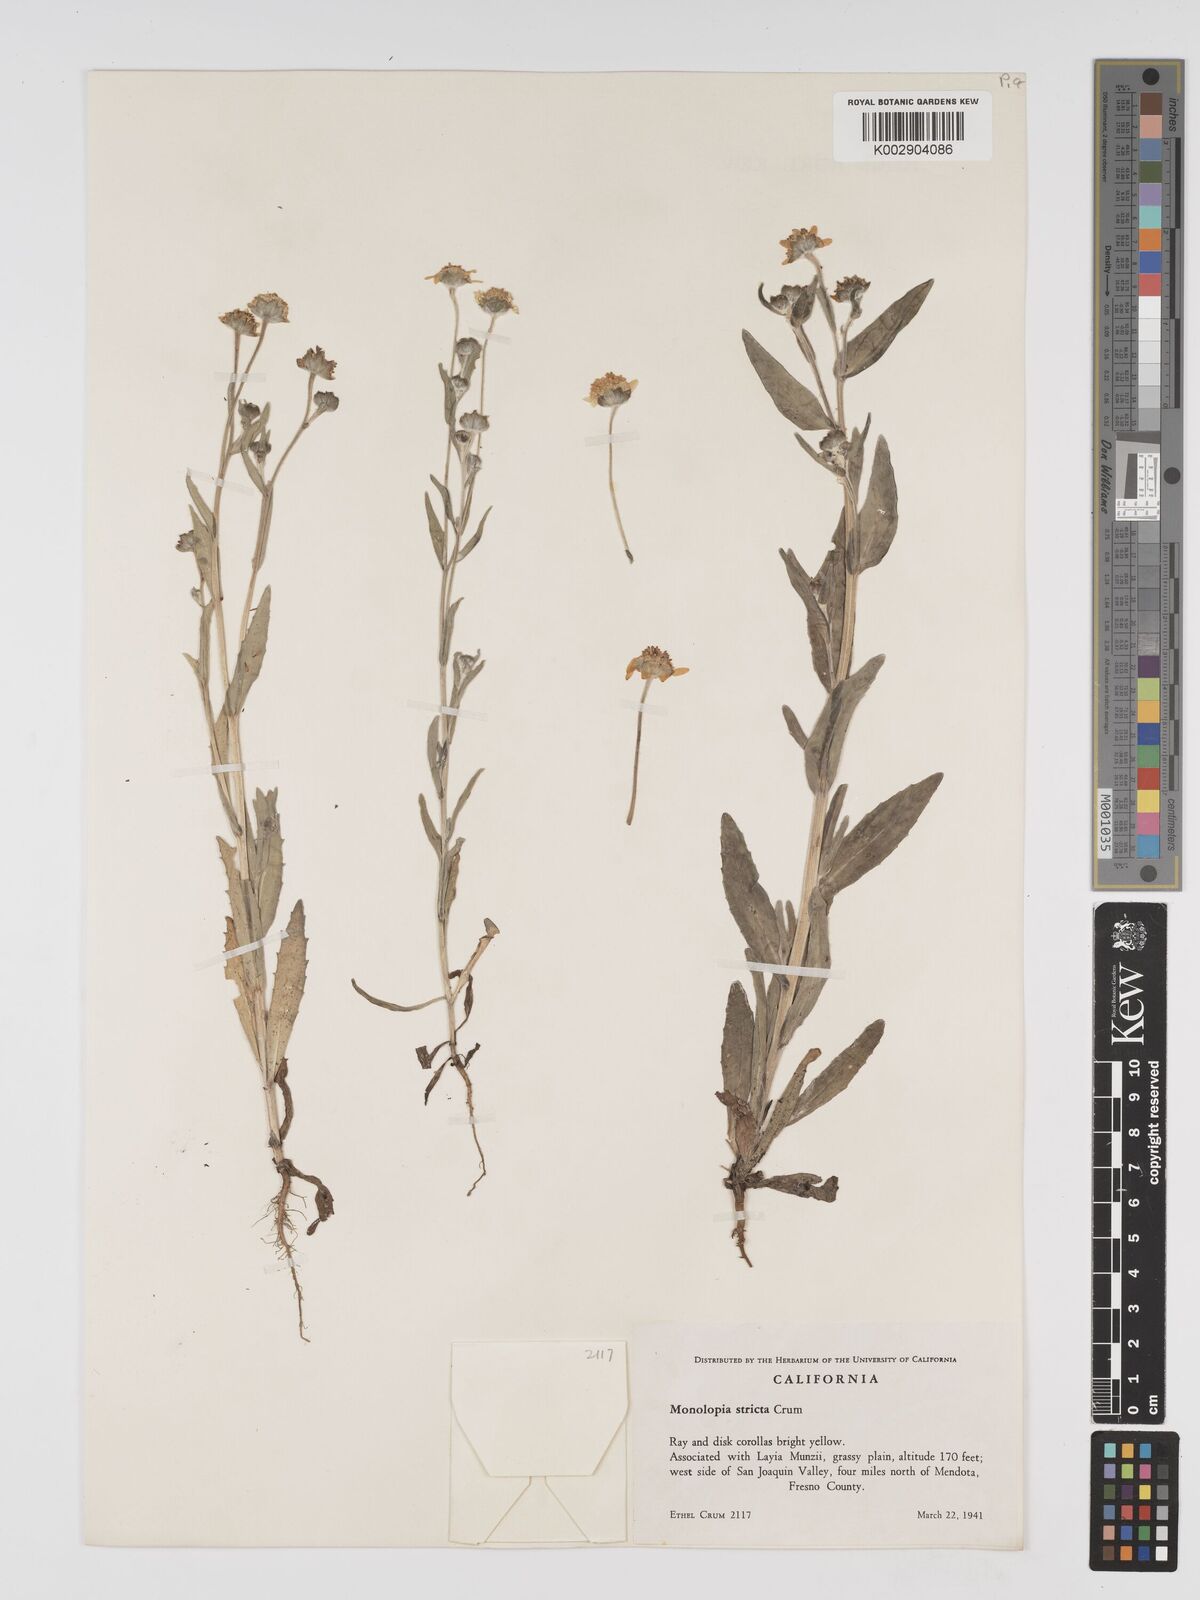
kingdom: Plantae
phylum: Tracheophyta
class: Magnoliopsida
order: Asterales
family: Asteraceae
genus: Monolopia
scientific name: Monolopia stricta
